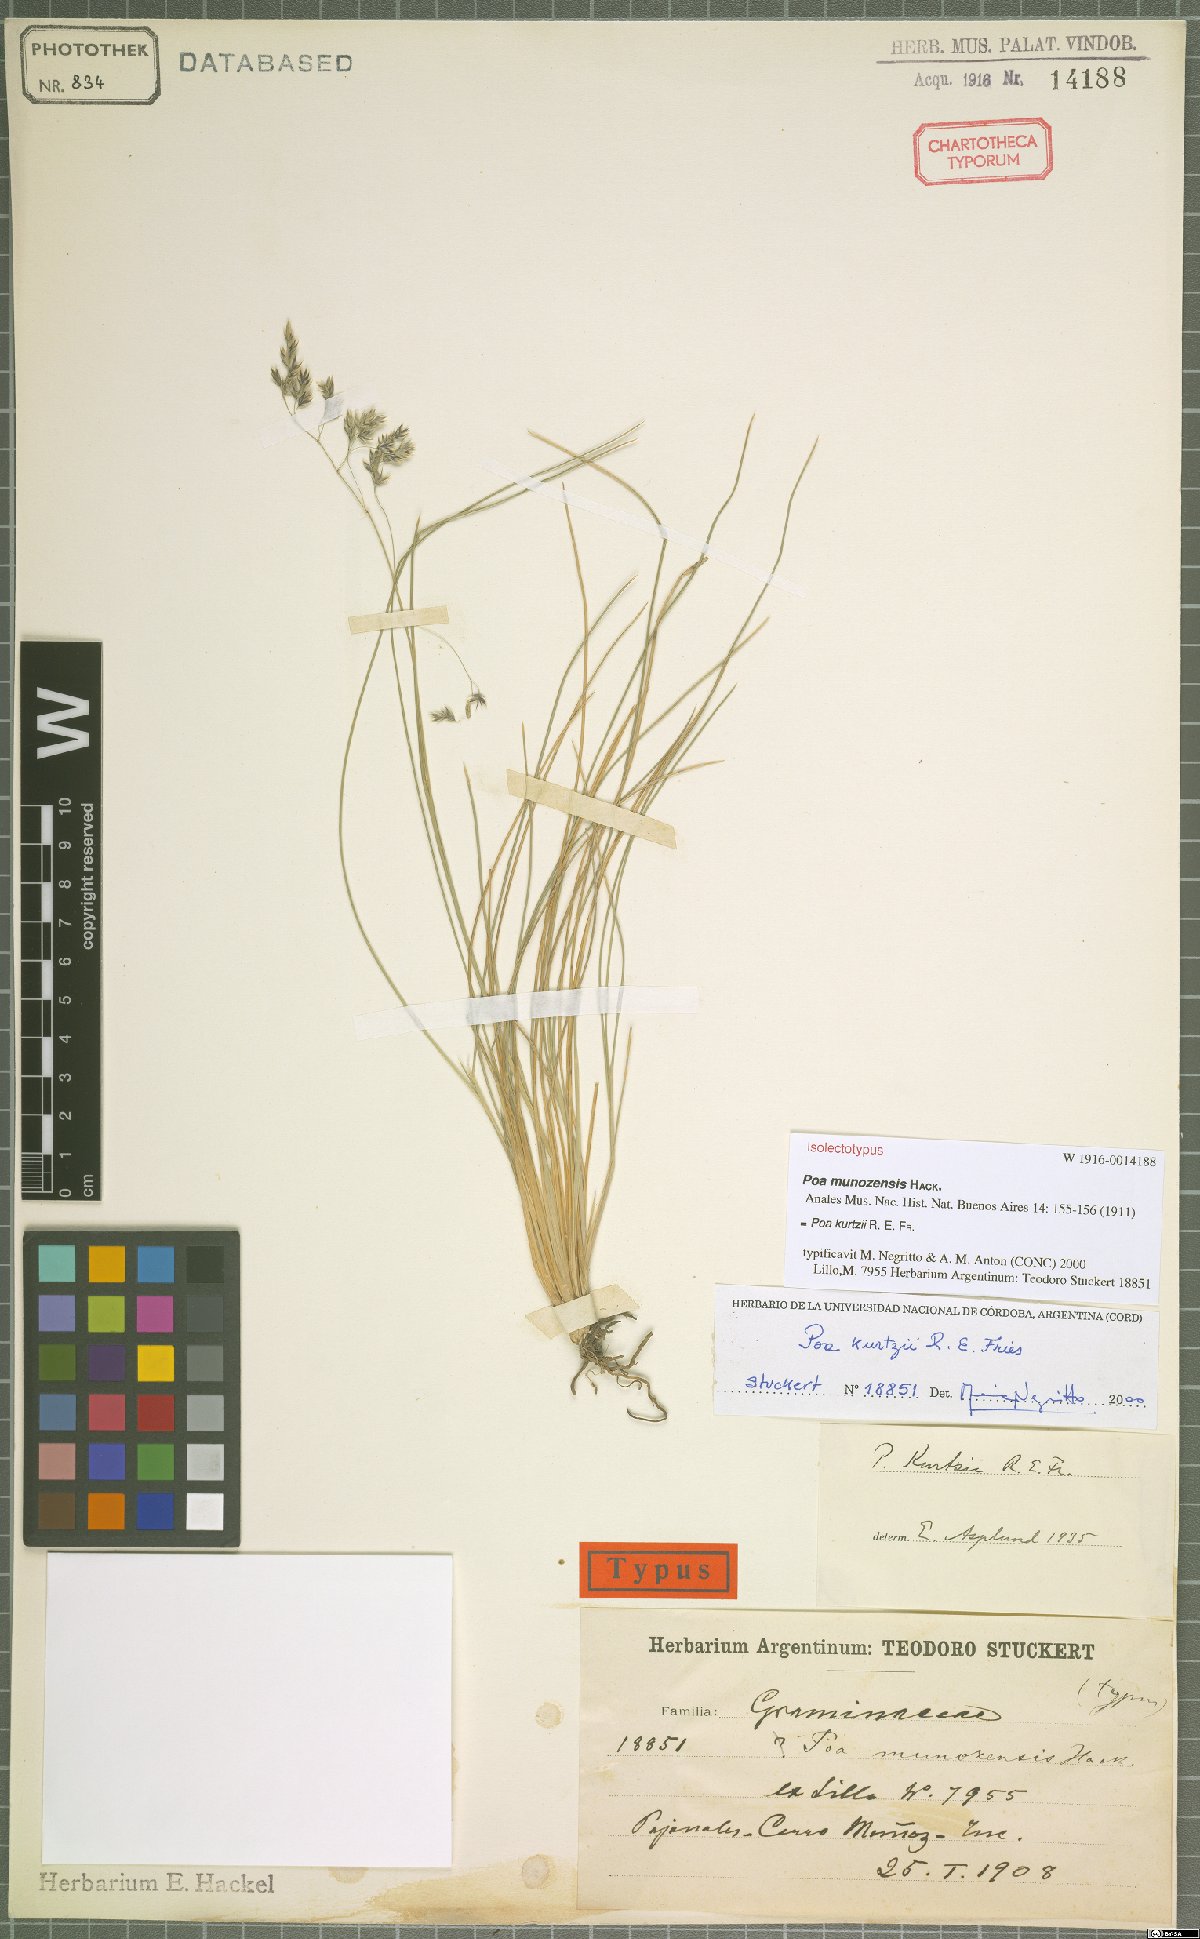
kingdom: Plantae
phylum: Tracheophyta
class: Liliopsida
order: Poales
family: Poaceae
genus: Poa
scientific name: Poa kurtzii
